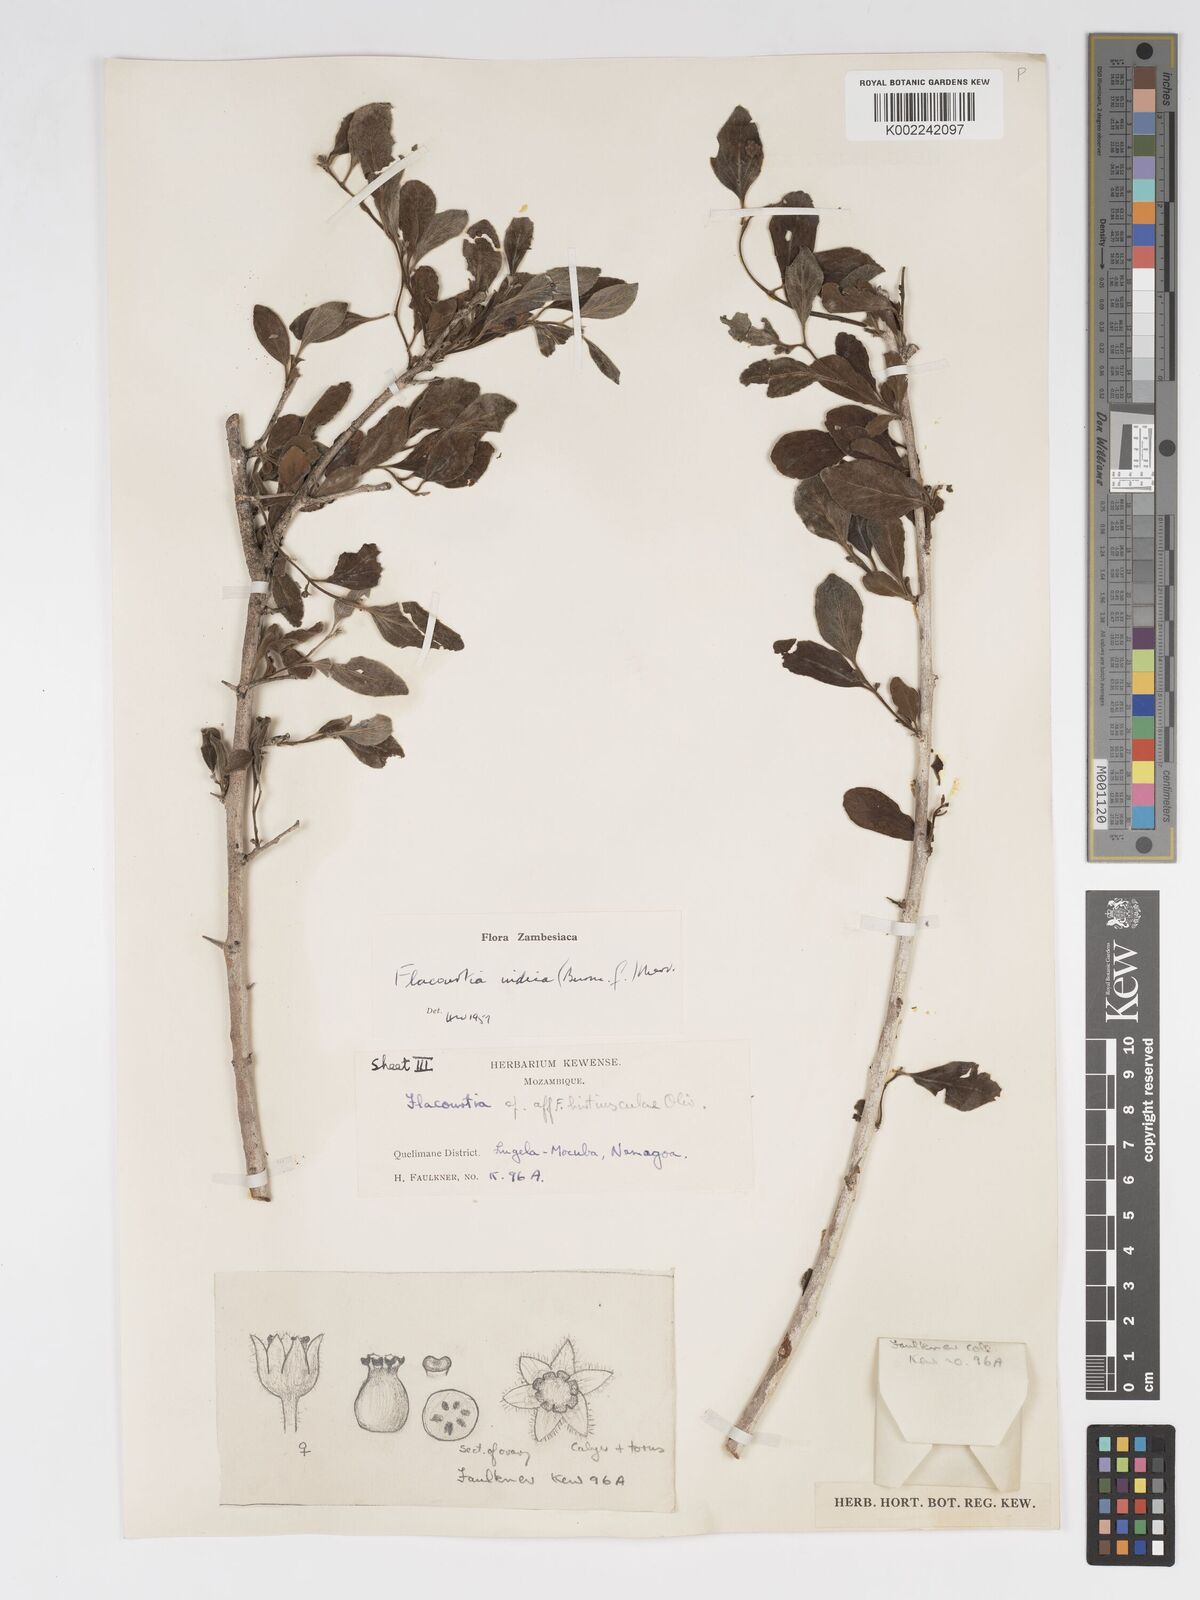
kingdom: Plantae
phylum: Tracheophyta
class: Magnoliopsida
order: Malpighiales
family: Salicaceae
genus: Flacourtia
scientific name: Flacourtia indica
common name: Governor's plum
